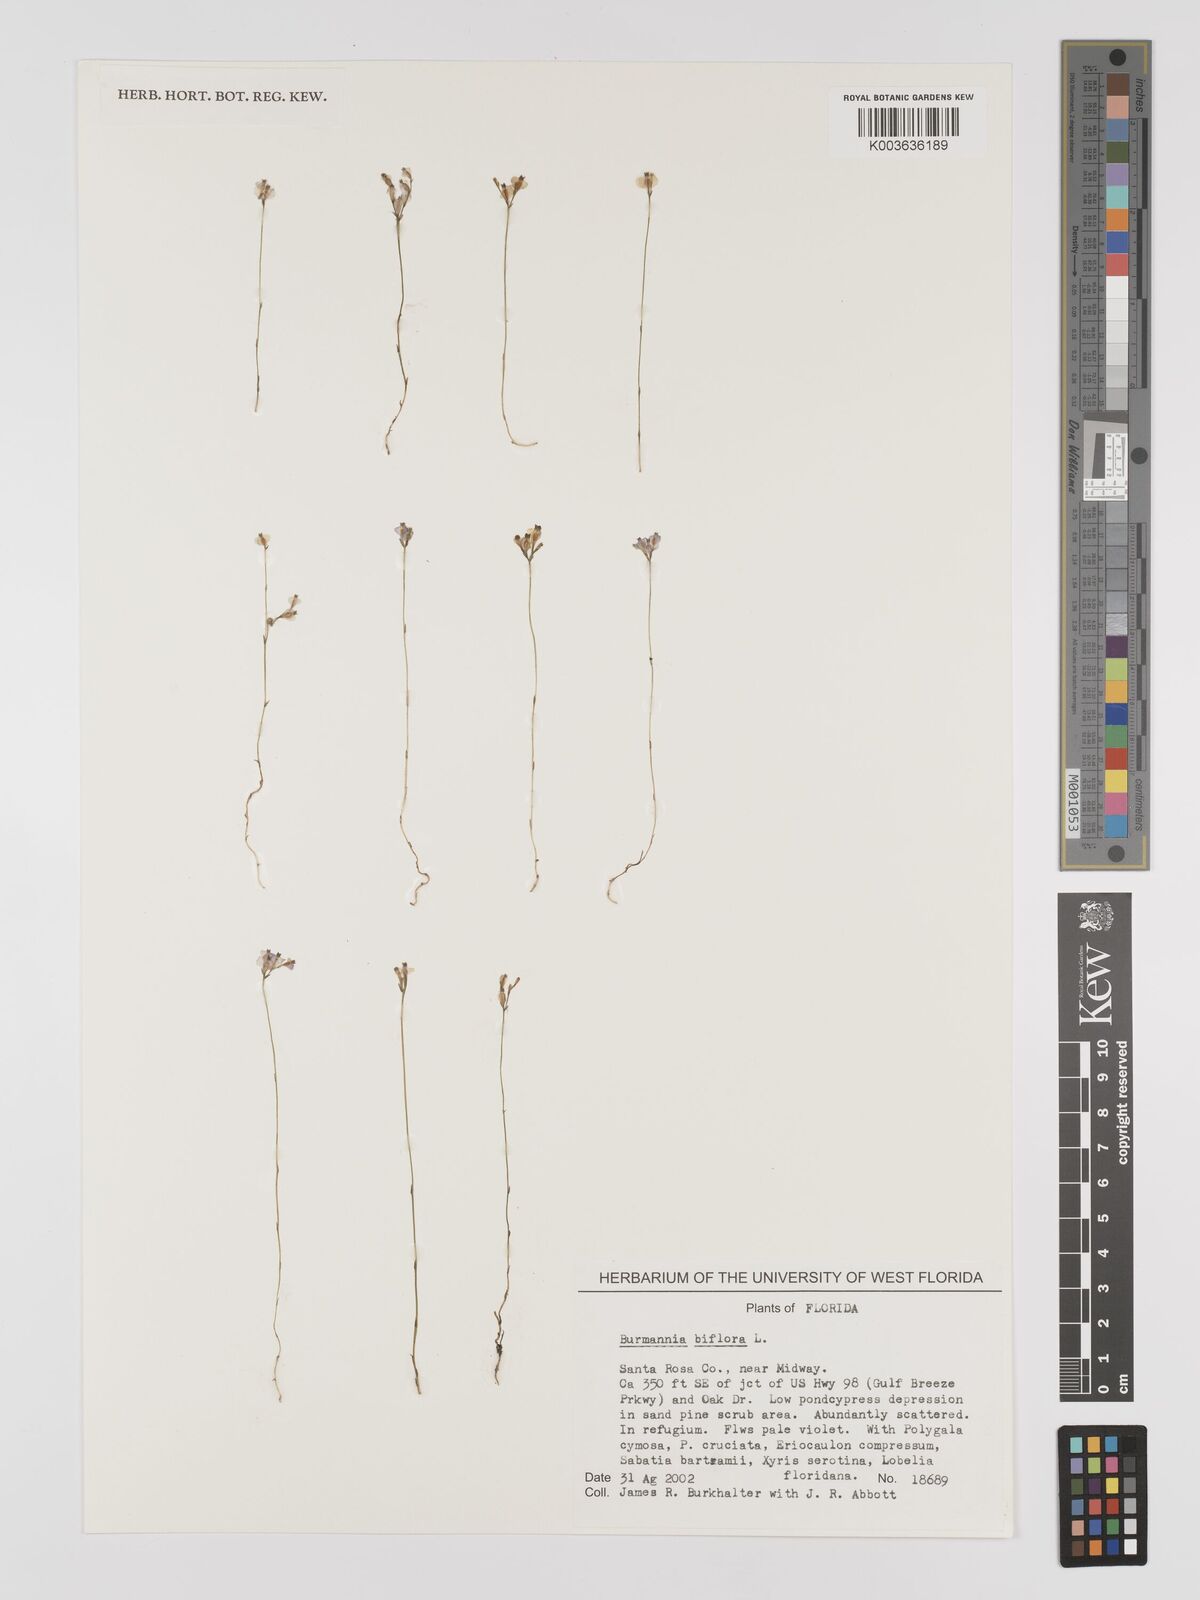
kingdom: Plantae
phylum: Tracheophyta
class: Liliopsida
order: Dioscoreales
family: Burmanniaceae
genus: Burmannia
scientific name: Burmannia biflora
